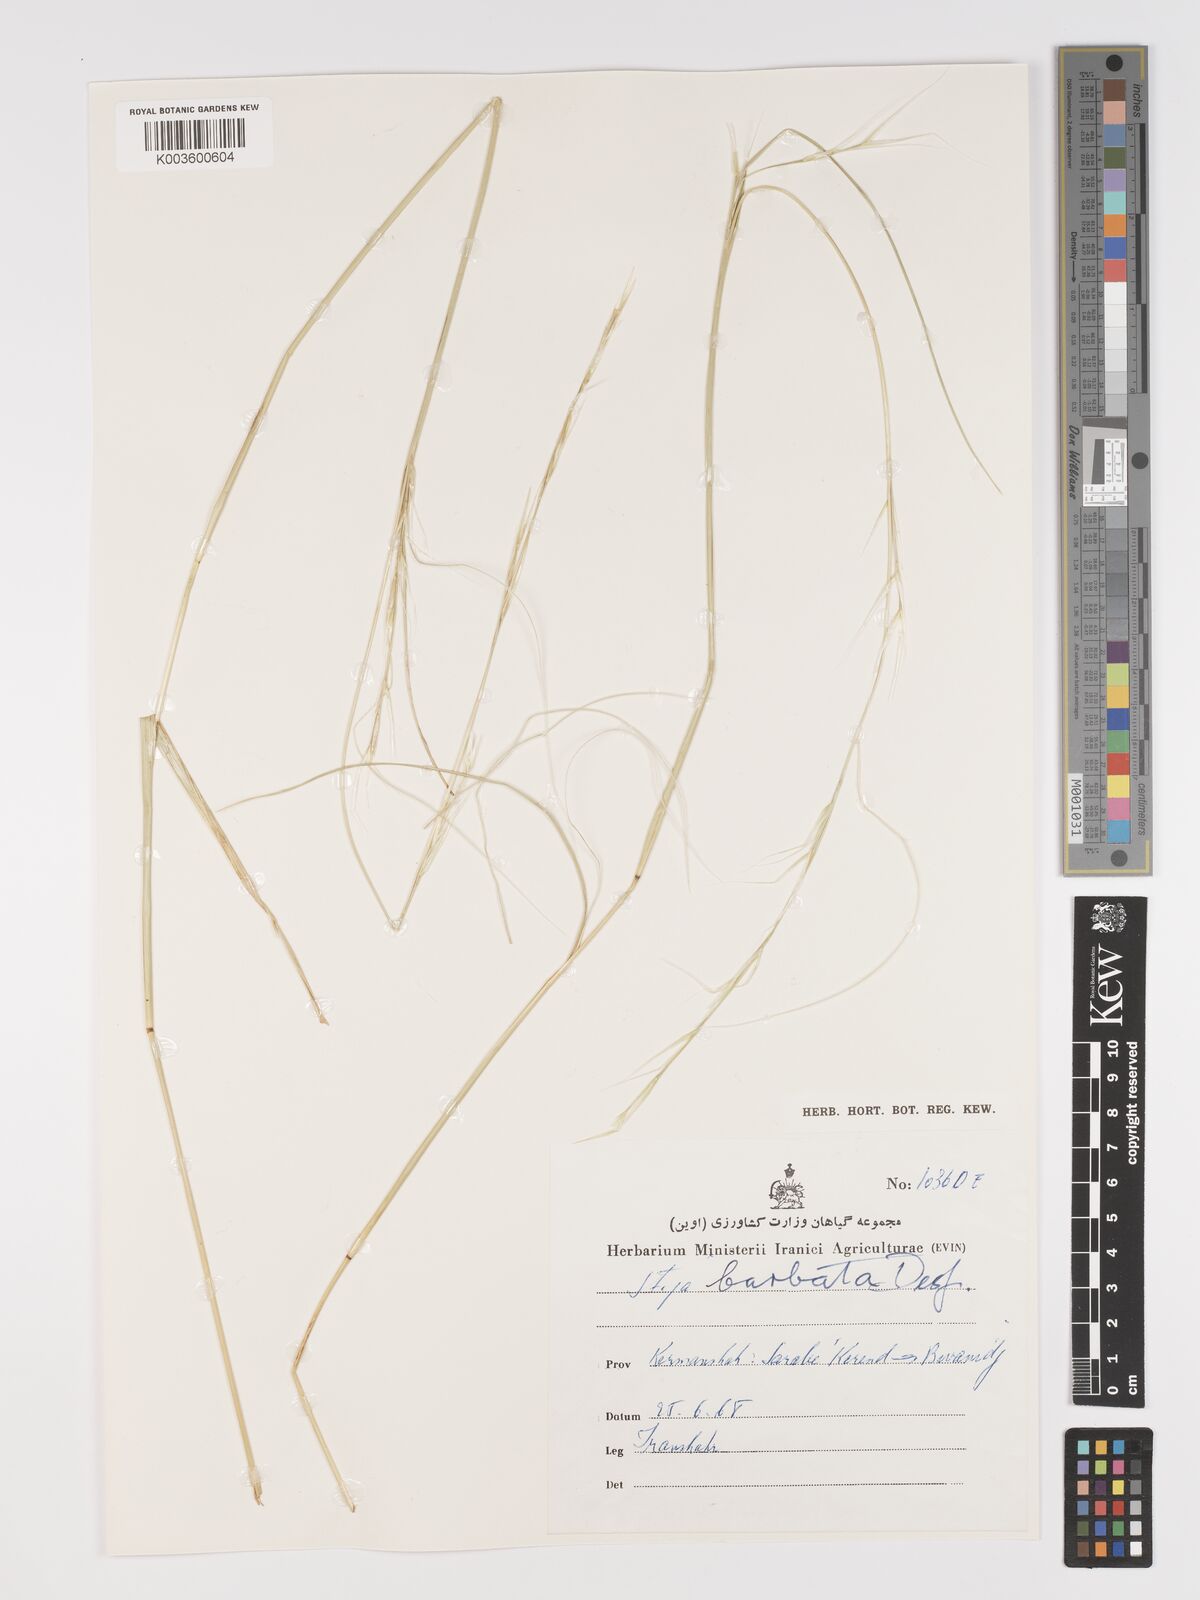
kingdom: Plantae
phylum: Tracheophyta
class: Liliopsida
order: Poales
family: Poaceae
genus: Stipa
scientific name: Stipa barbata
